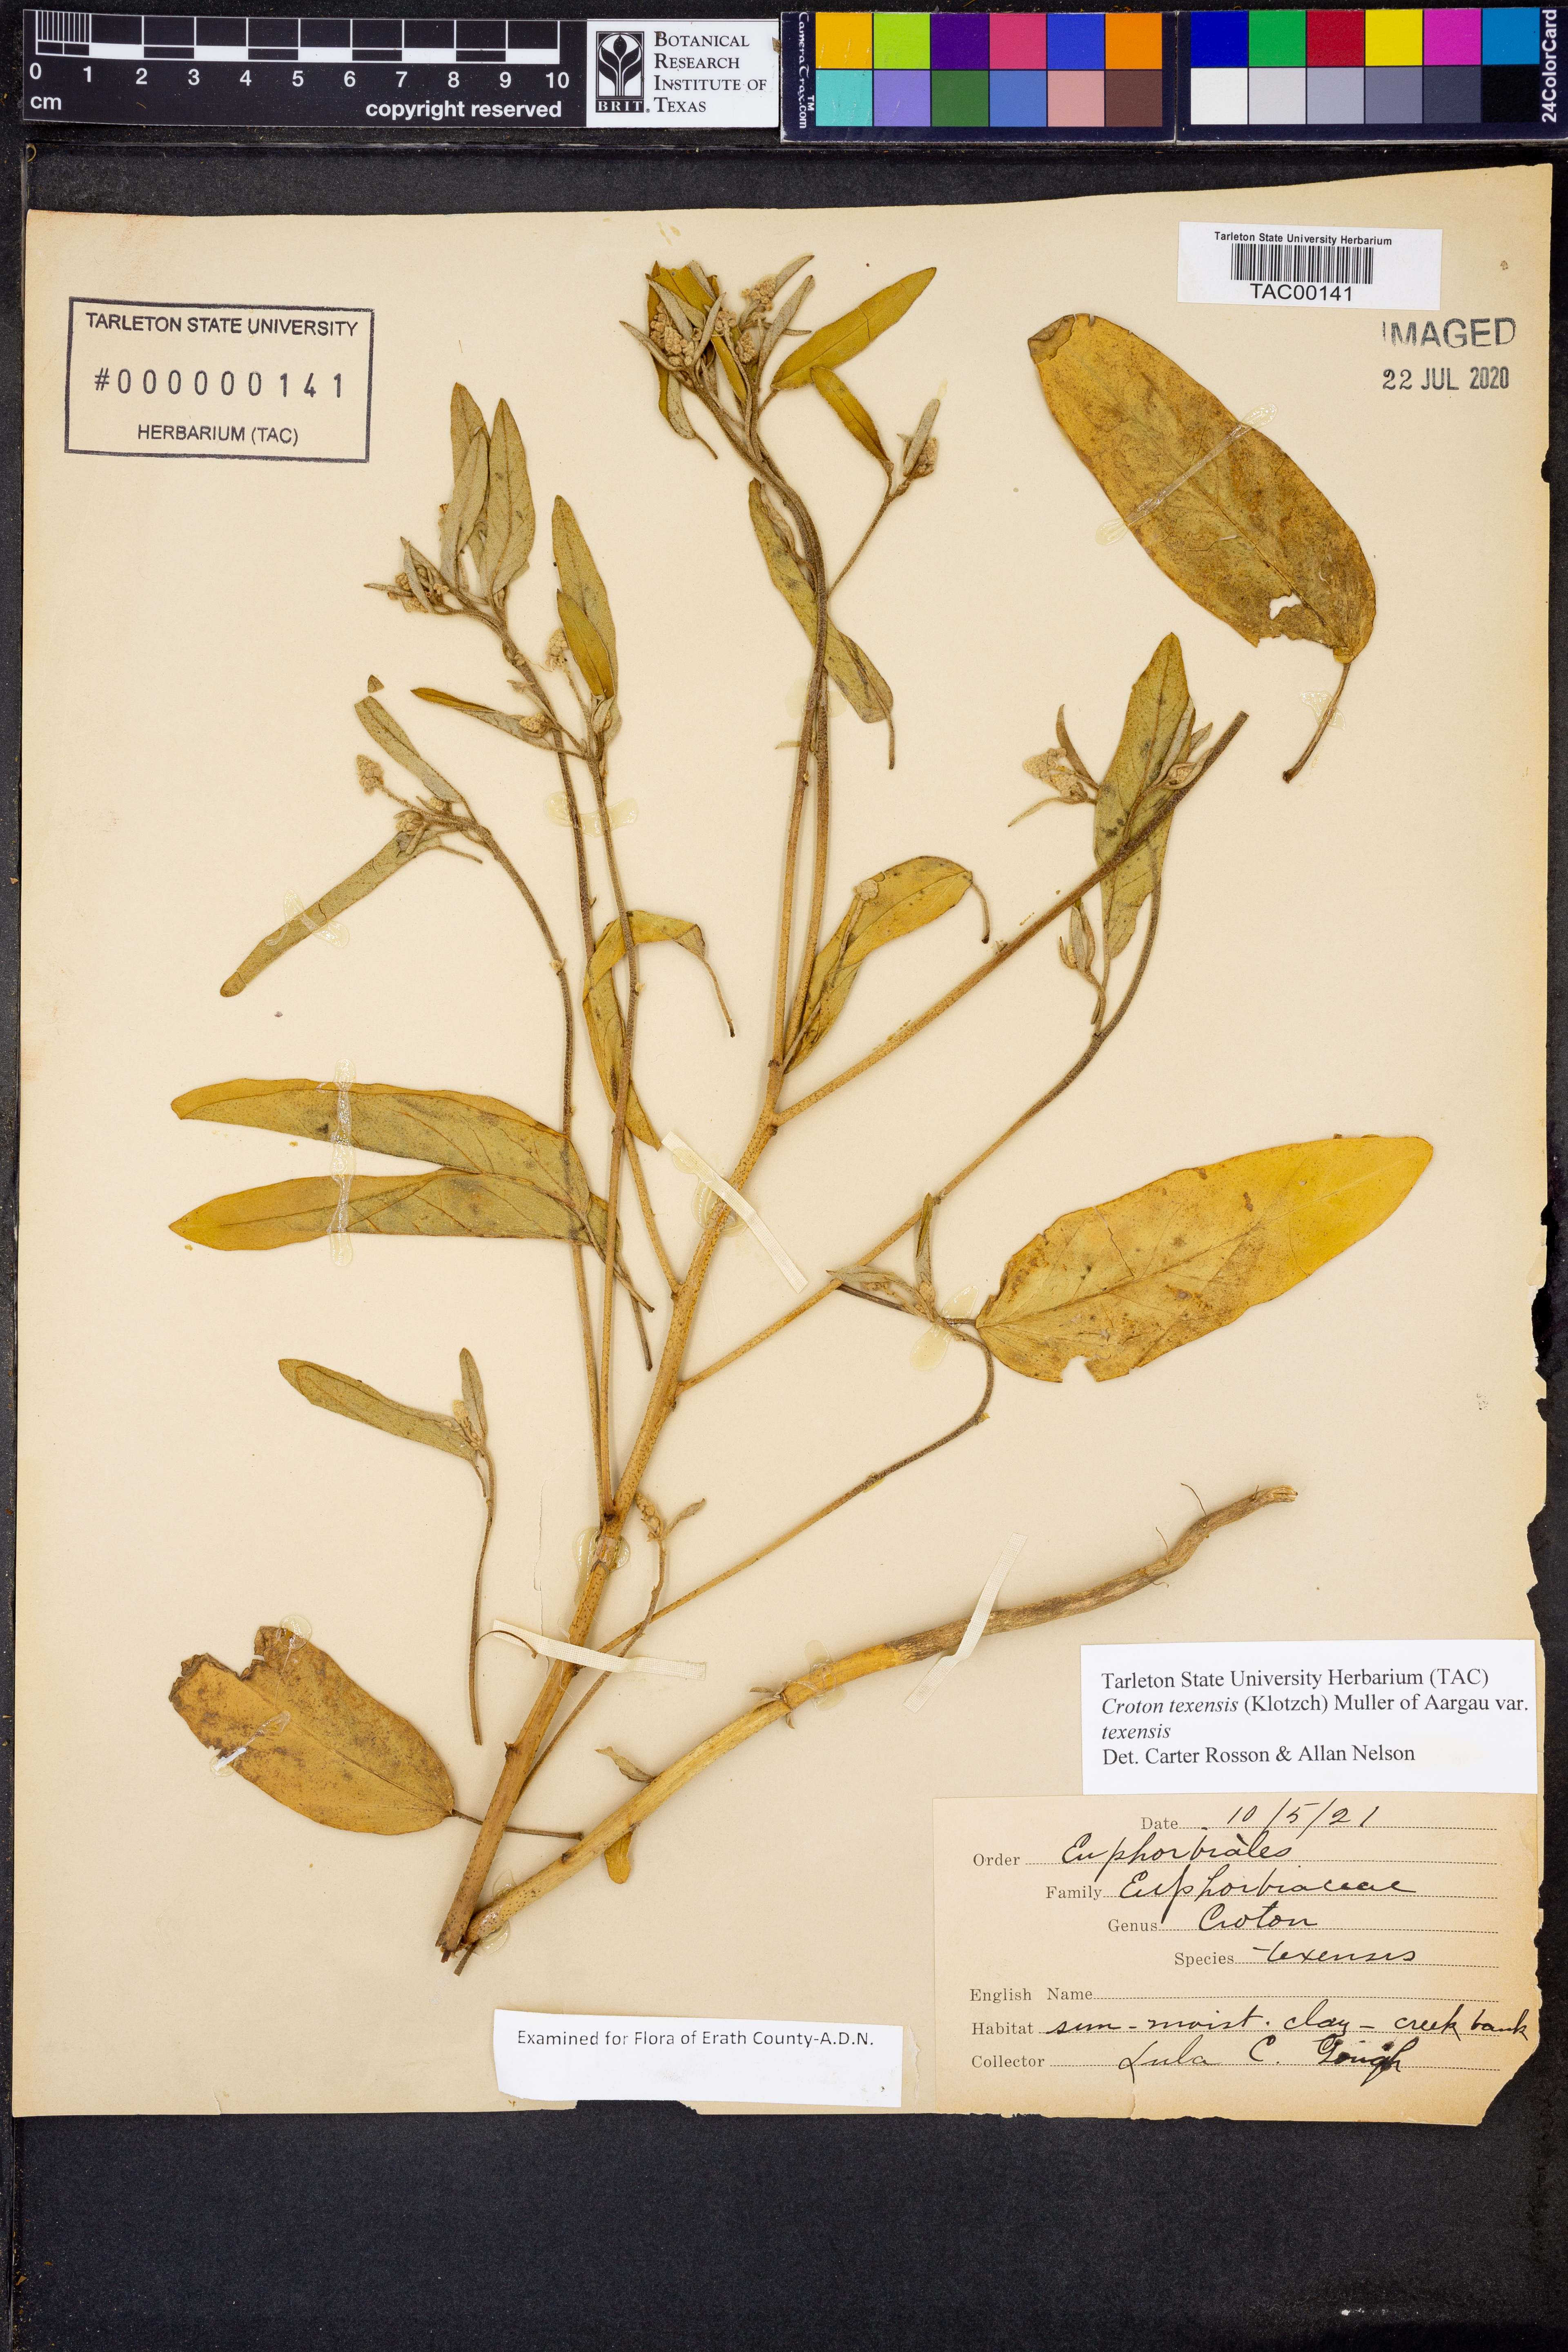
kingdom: Plantae
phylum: Tracheophyta
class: Magnoliopsida
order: Malpighiales
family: Euphorbiaceae
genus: Croton
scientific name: Croton texensis
